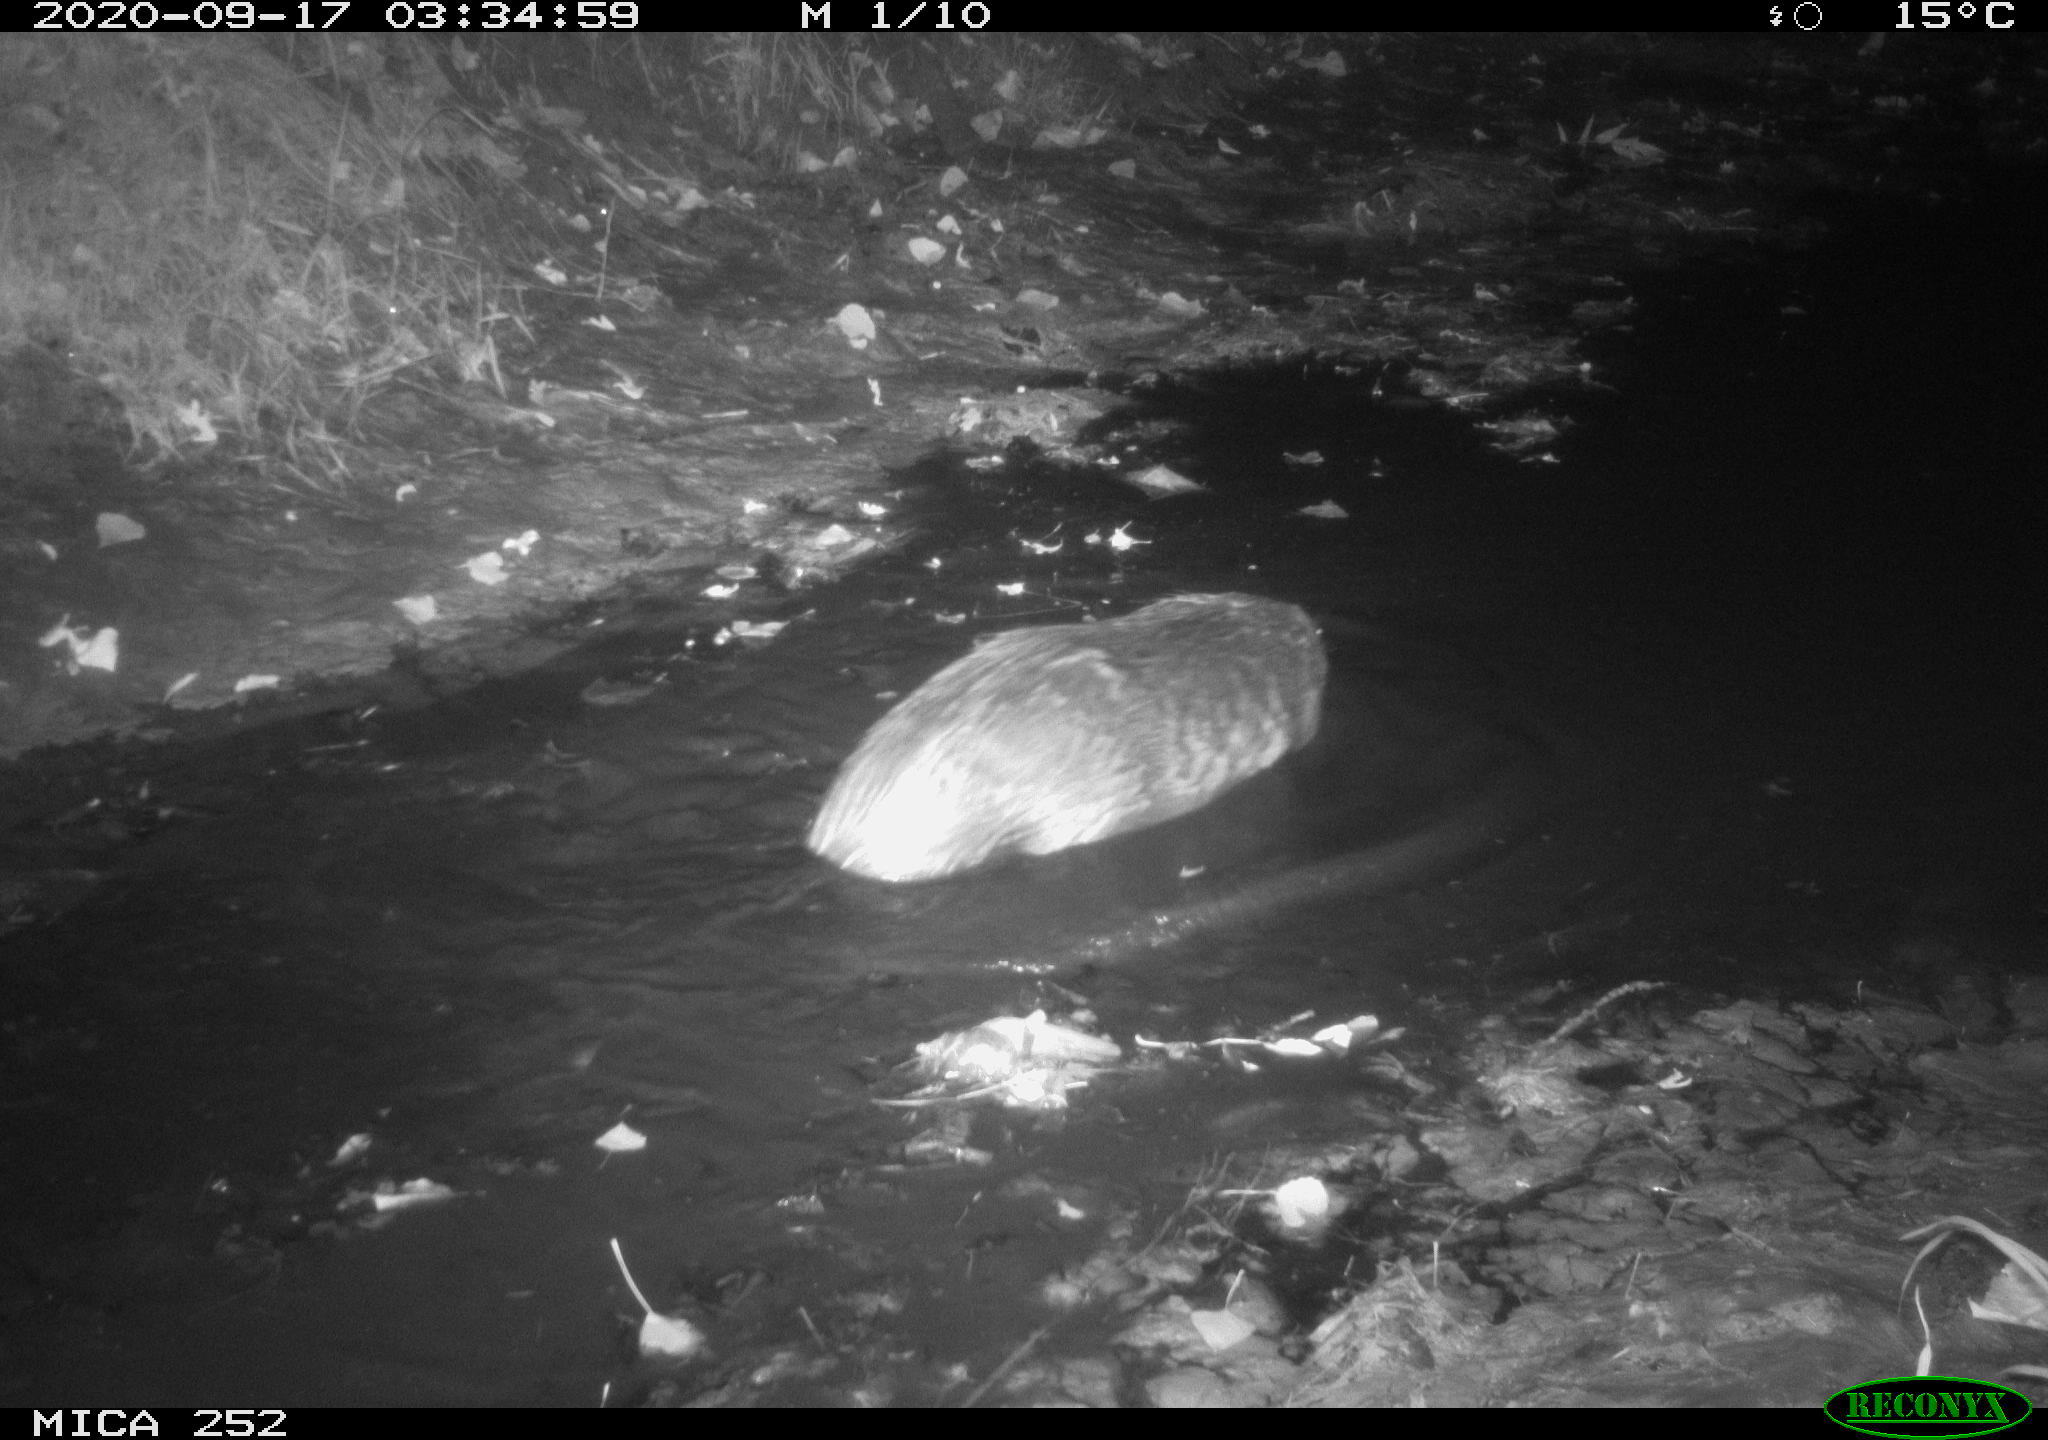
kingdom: Animalia
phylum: Chordata
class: Mammalia
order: Rodentia
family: Castoridae
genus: Castor
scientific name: Castor fiber
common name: Eurasian beaver
